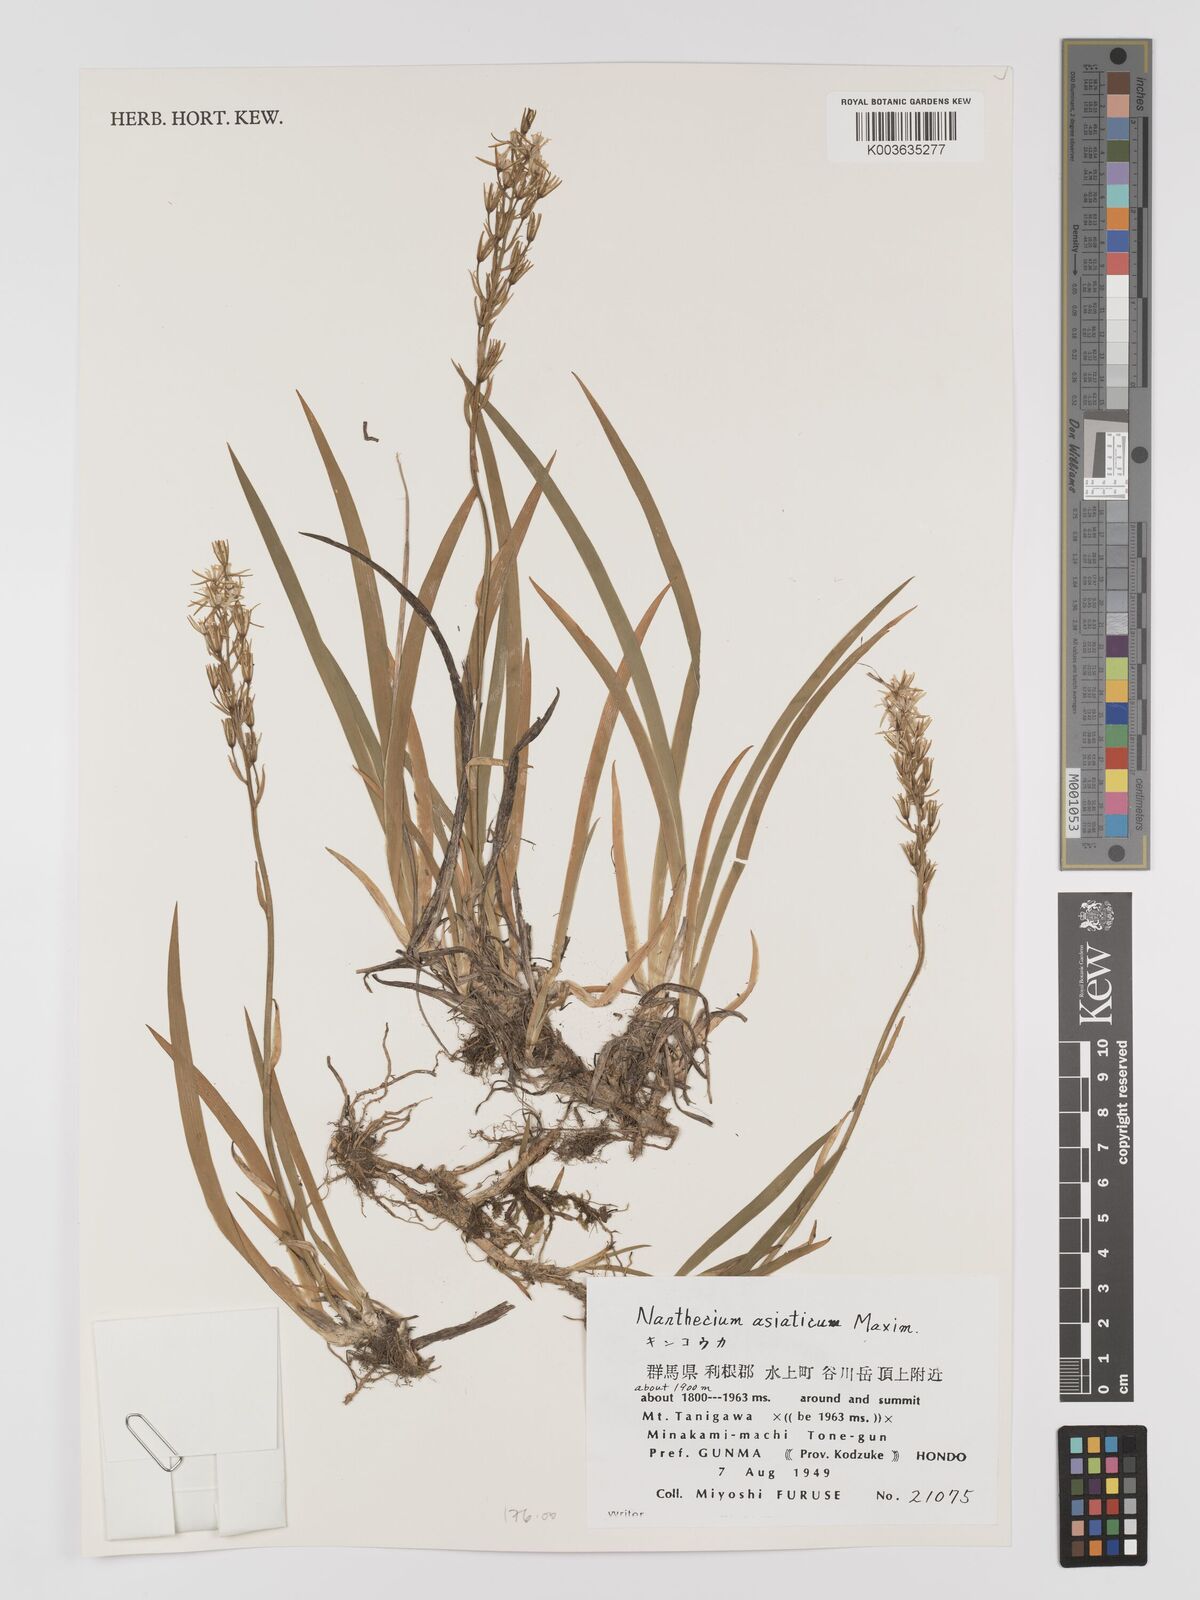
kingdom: Plantae
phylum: Tracheophyta
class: Liliopsida
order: Dioscoreales
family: Nartheciaceae
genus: Narthecium
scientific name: Narthecium asiaticum
